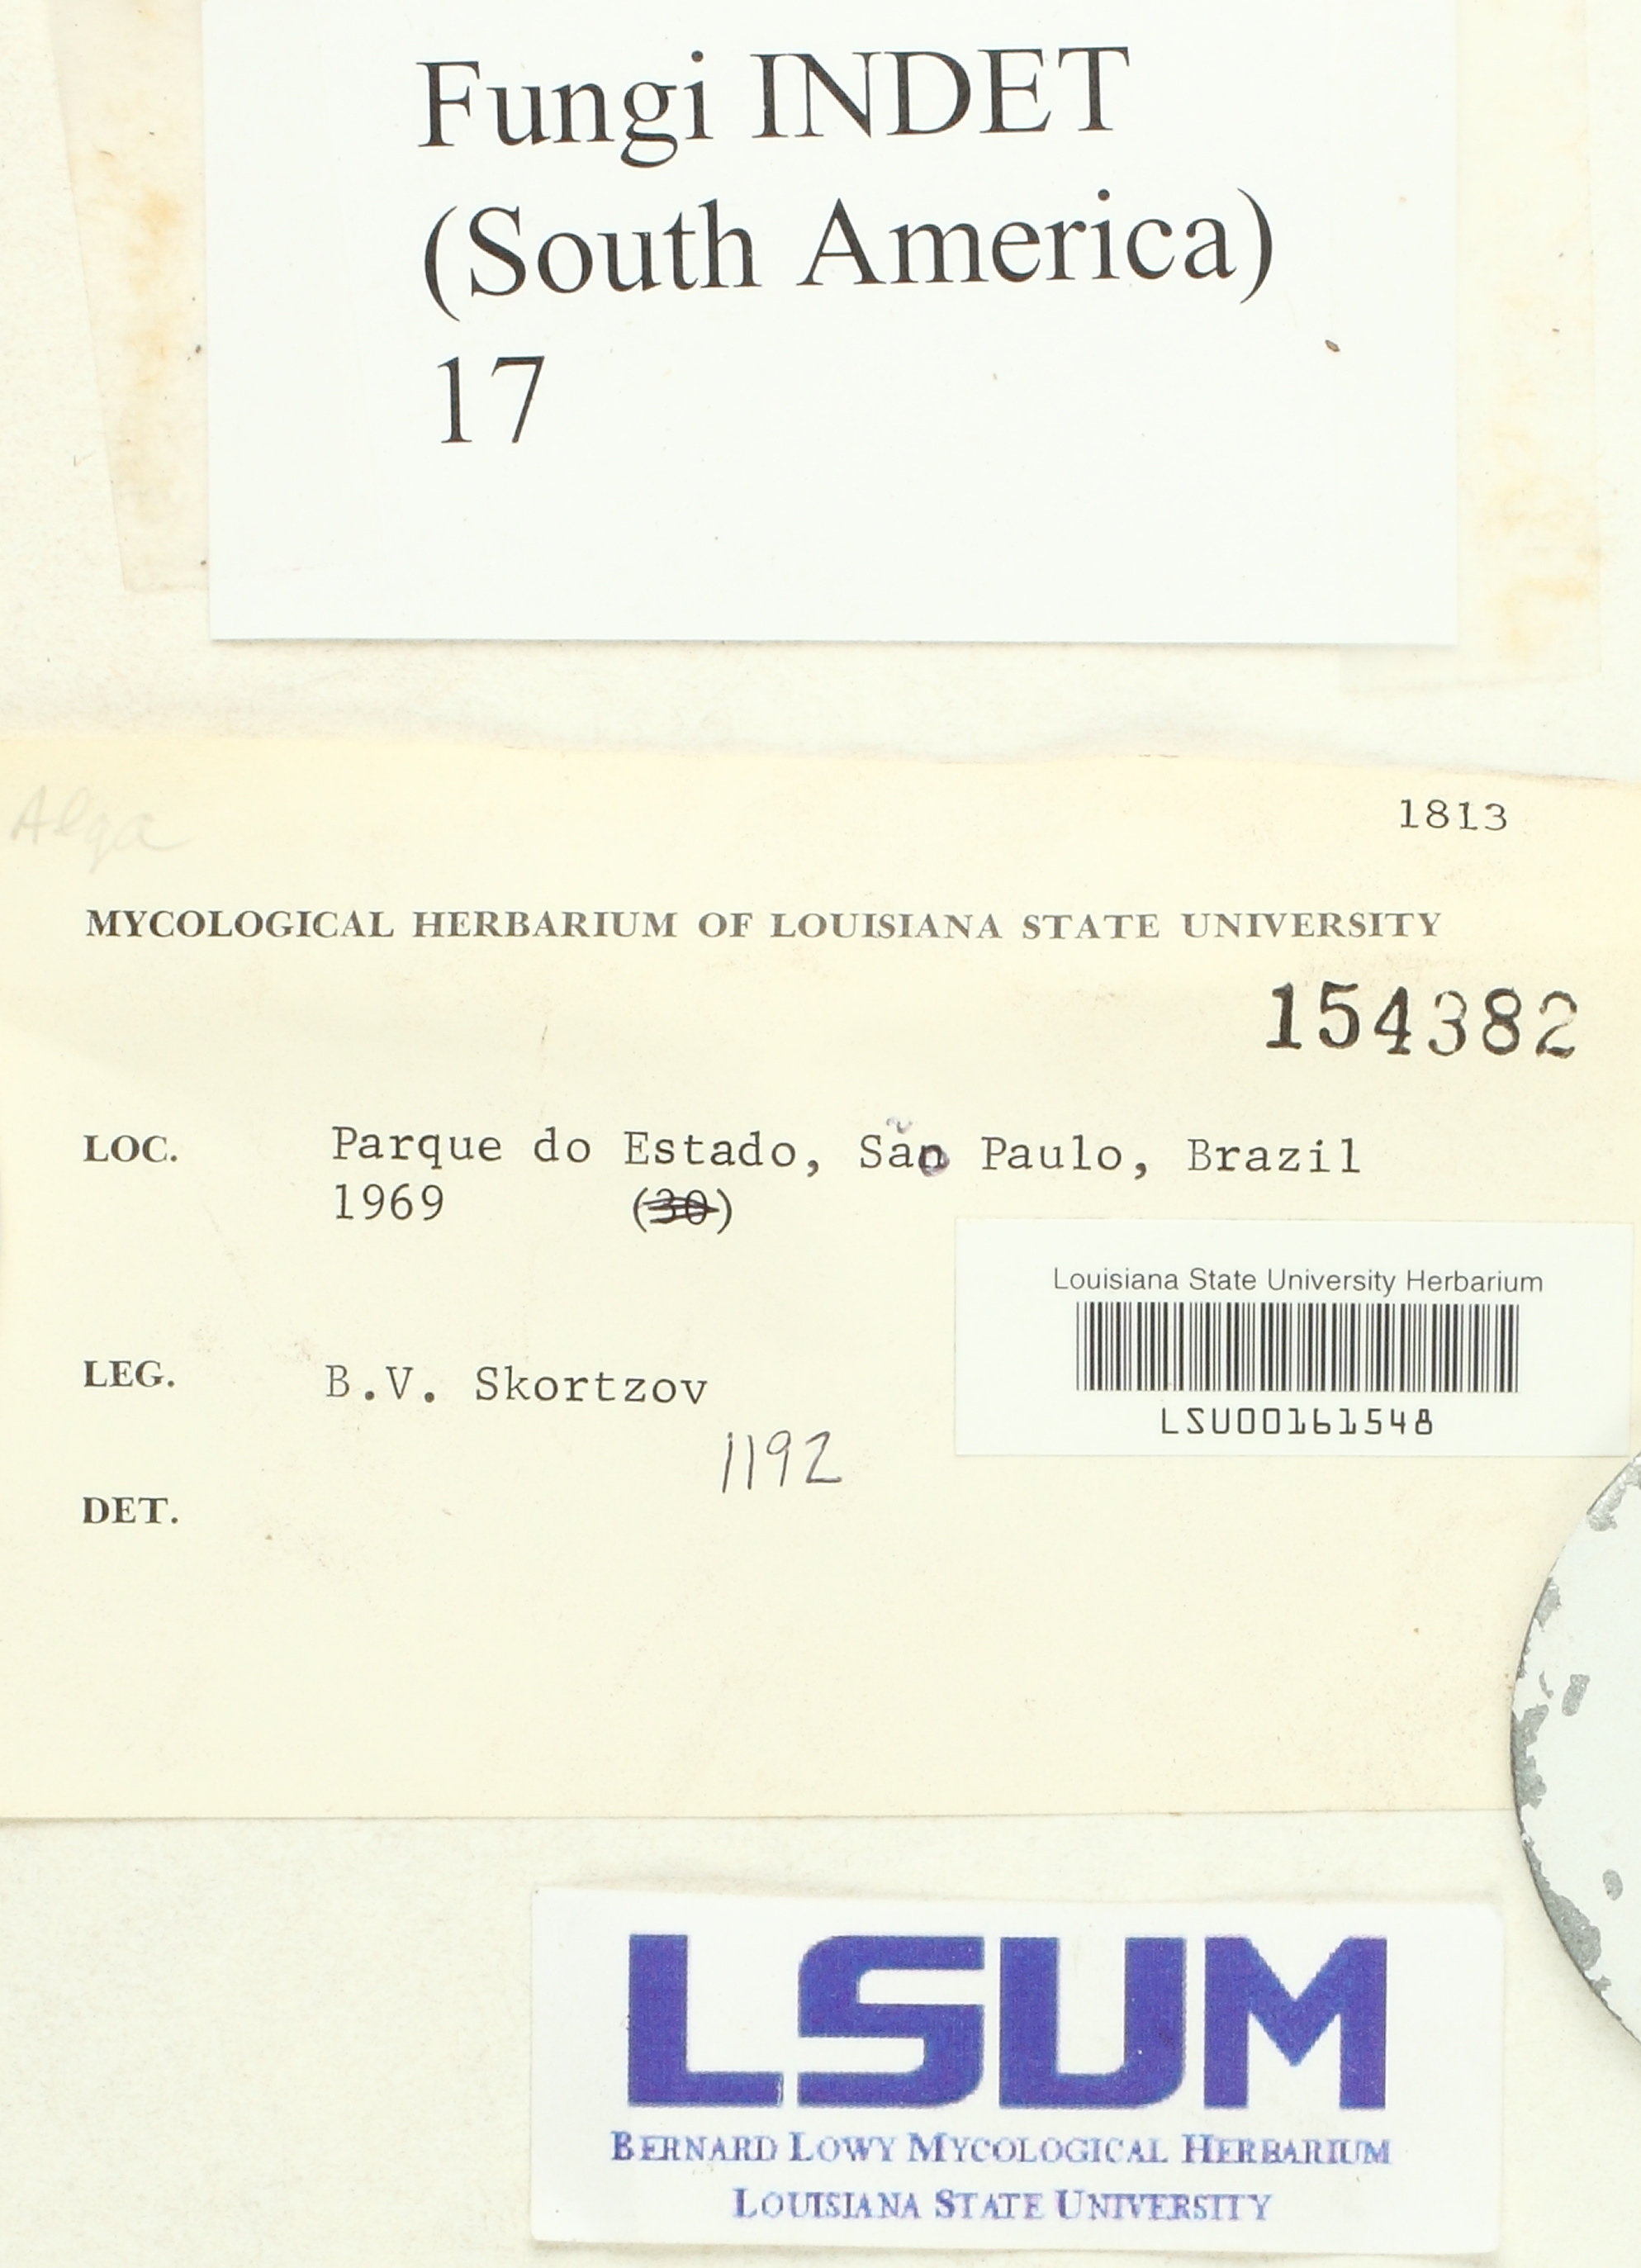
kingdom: Fungi
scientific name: Fungi
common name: Fungi
